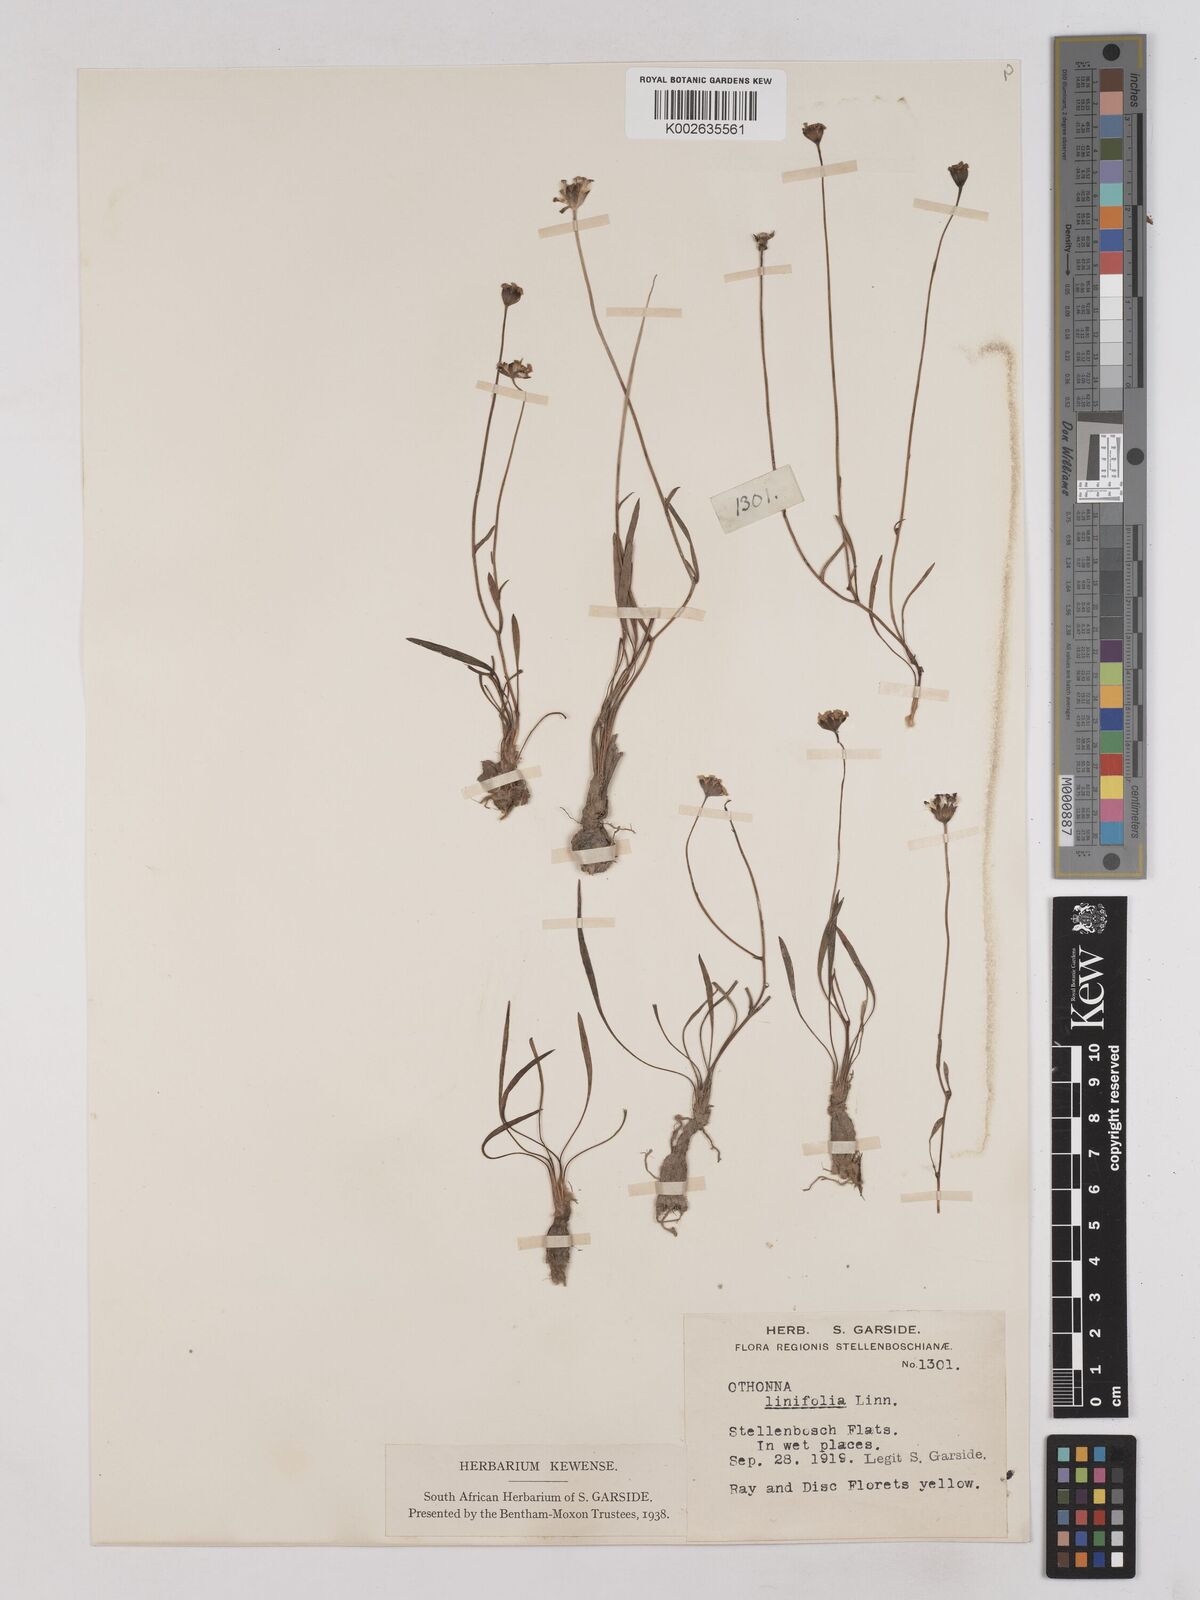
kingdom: Plantae
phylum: Tracheophyta
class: Magnoliopsida
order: Asterales
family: Asteraceae
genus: Othonna
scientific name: Othonna stenophylla
